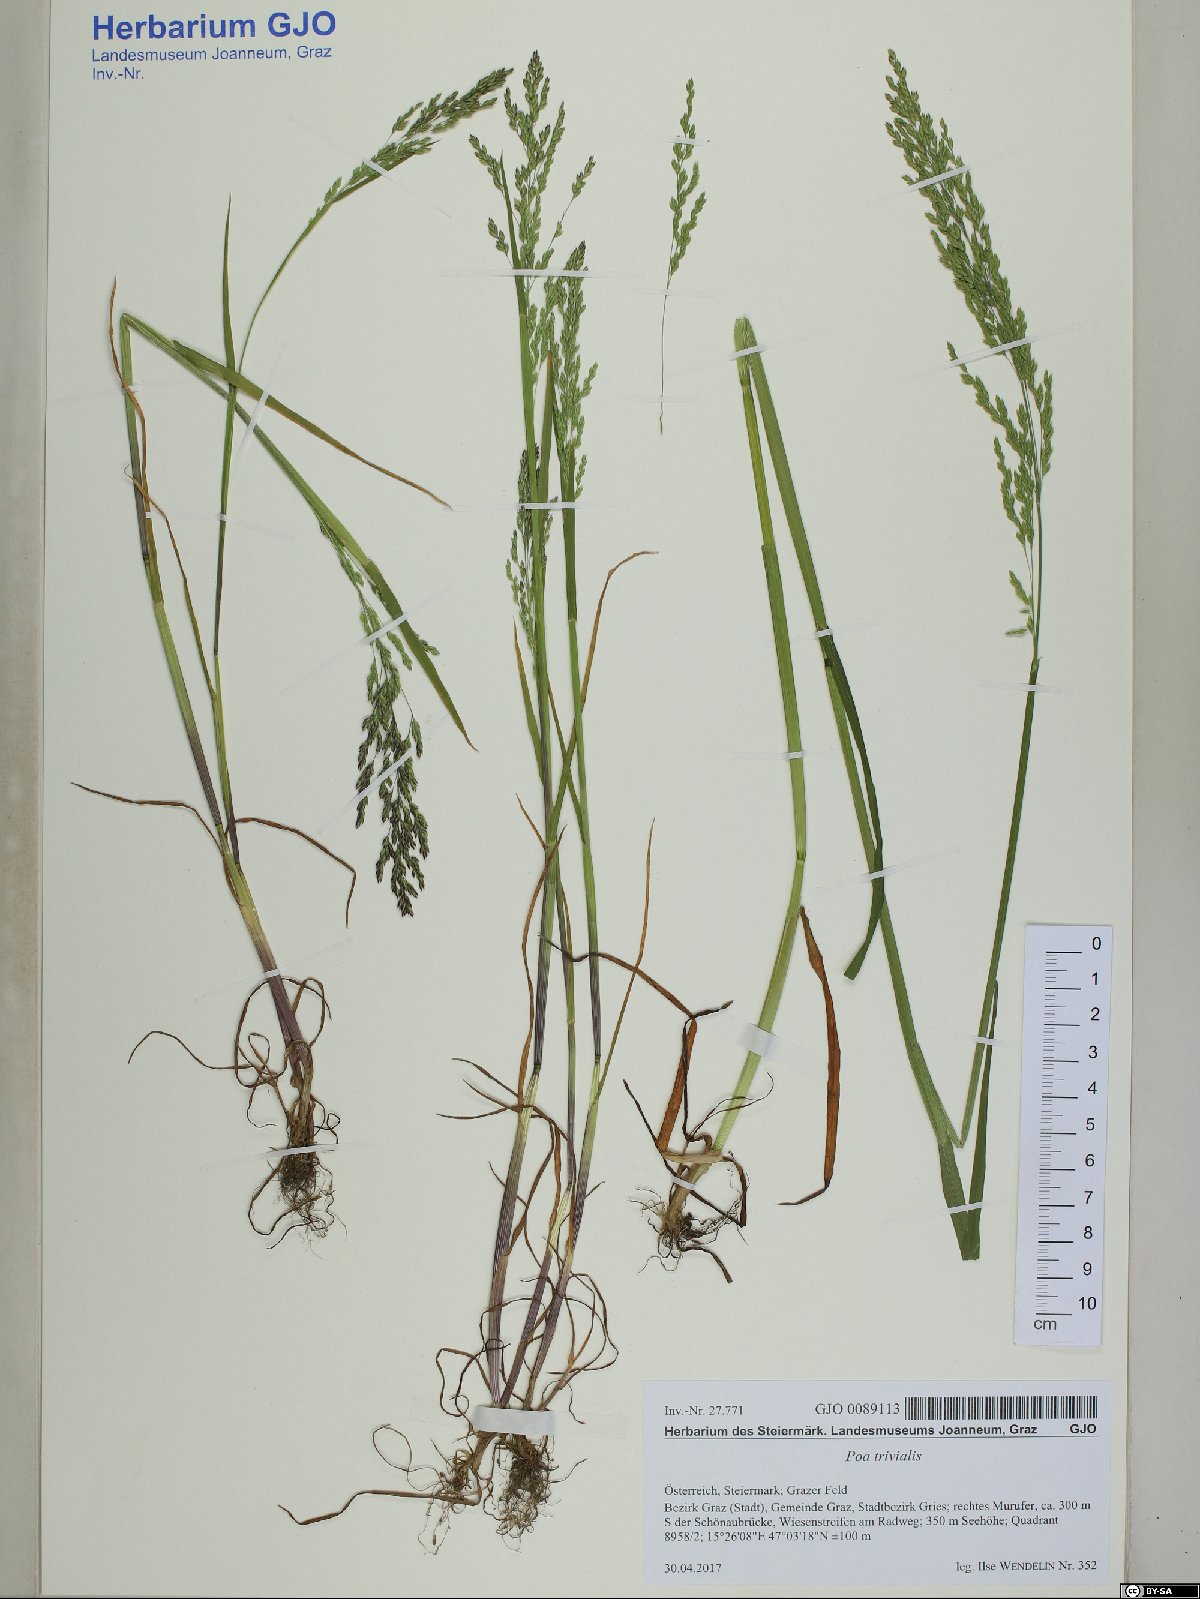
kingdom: Plantae
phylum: Tracheophyta
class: Liliopsida
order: Poales
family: Poaceae
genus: Poa
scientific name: Poa trivialis
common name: Rough bluegrass
